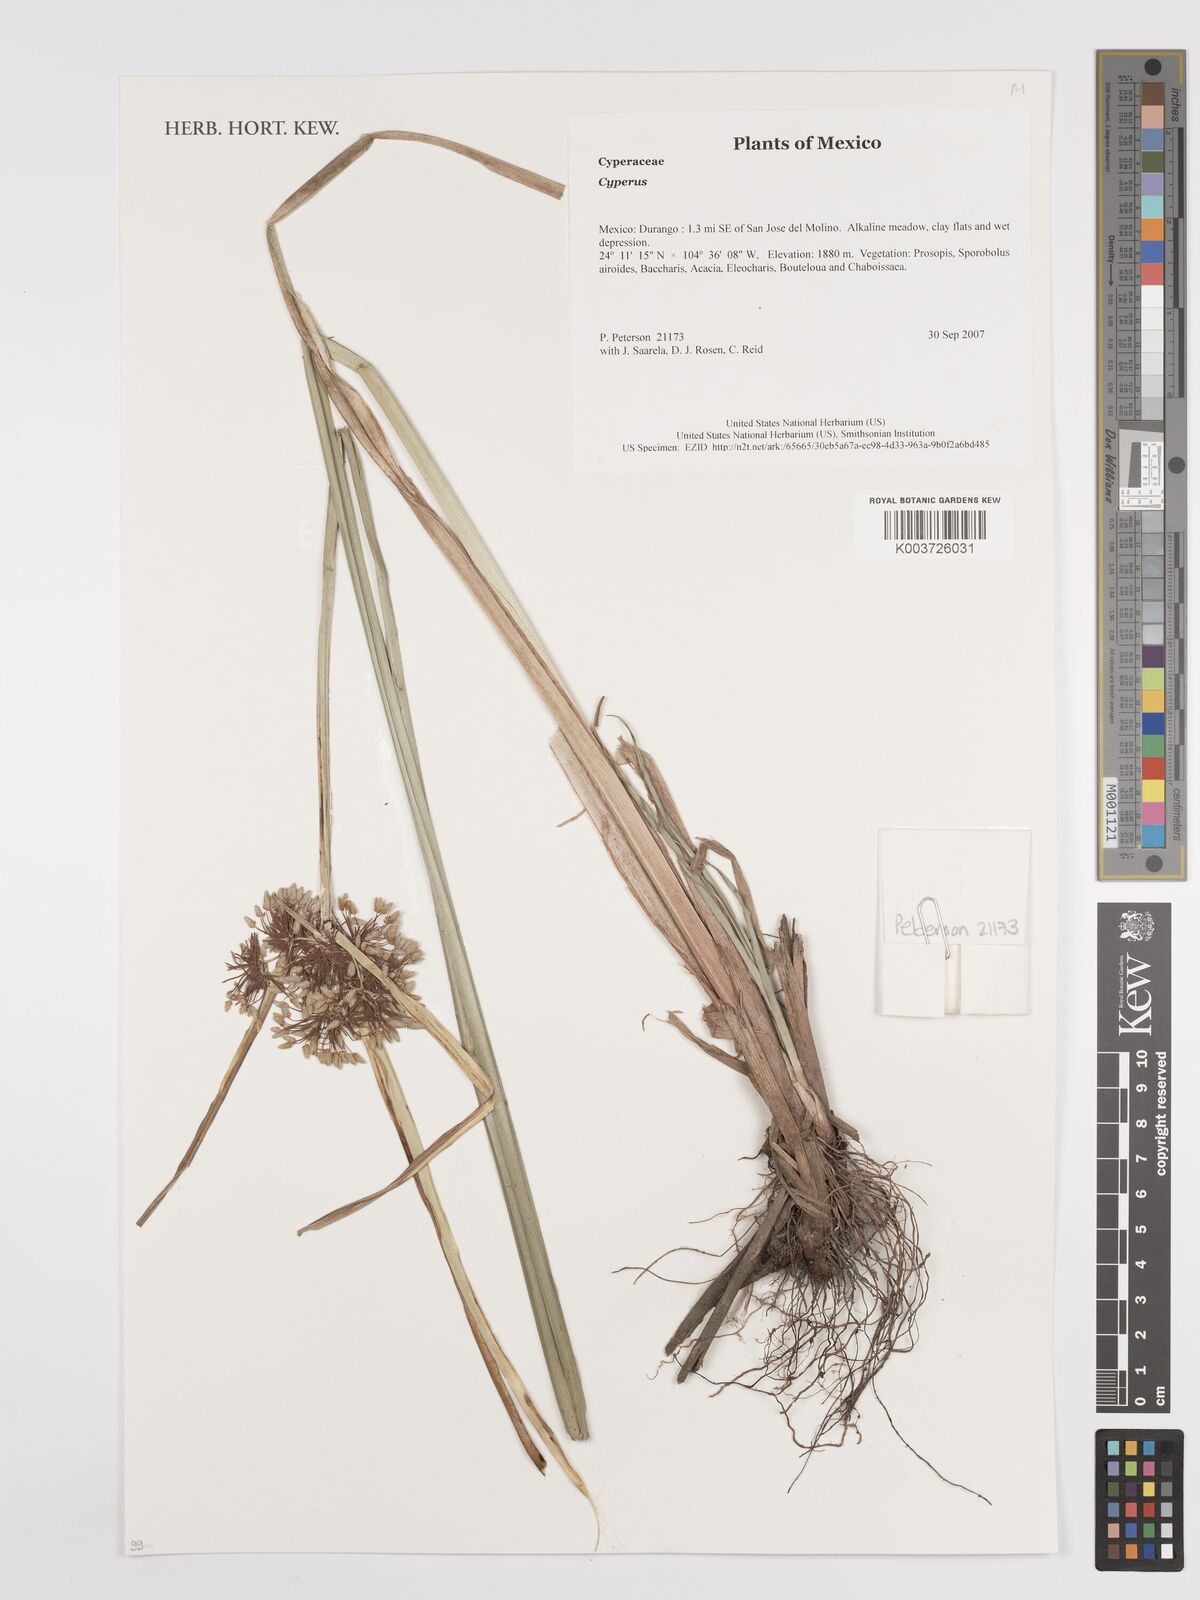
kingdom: Plantae
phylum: Tracheophyta
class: Liliopsida
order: Poales
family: Cyperaceae
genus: Cyperus
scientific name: Cyperus
